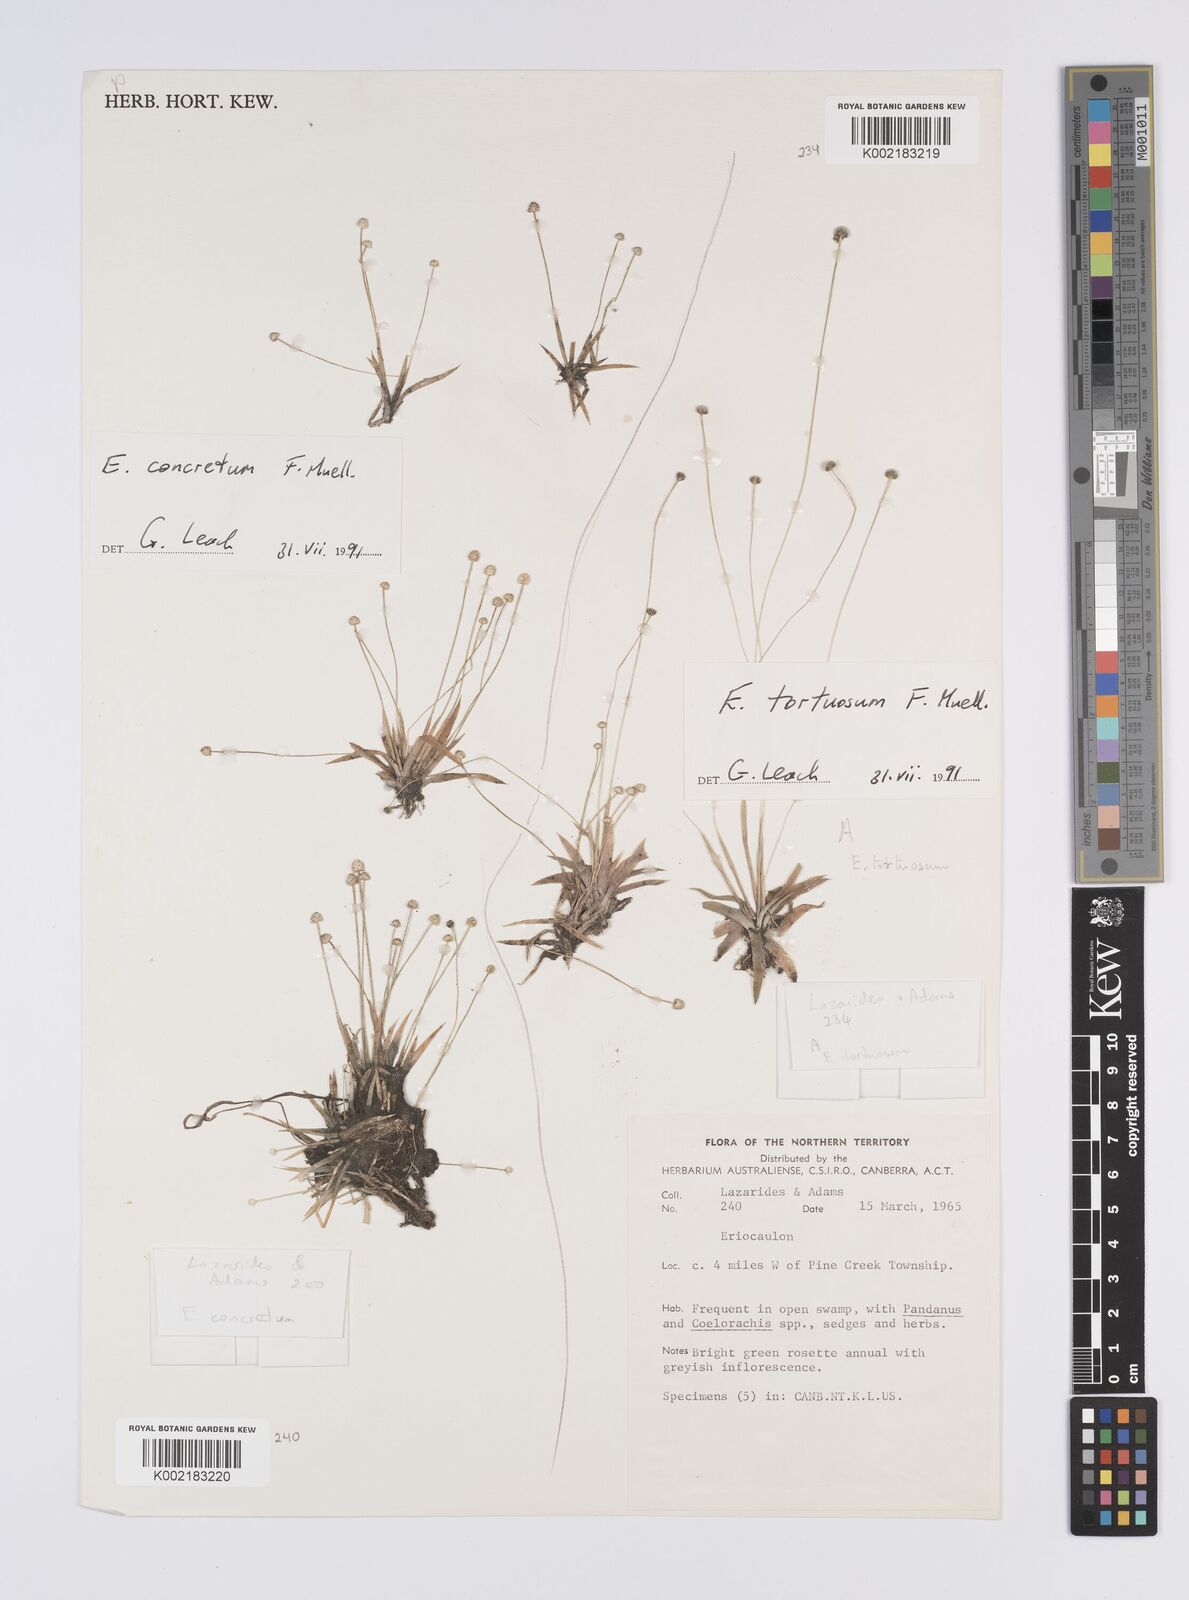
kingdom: Plantae
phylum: Tracheophyta
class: Liliopsida
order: Poales
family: Eriocaulaceae
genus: Eriocaulon
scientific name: Eriocaulon concretum
